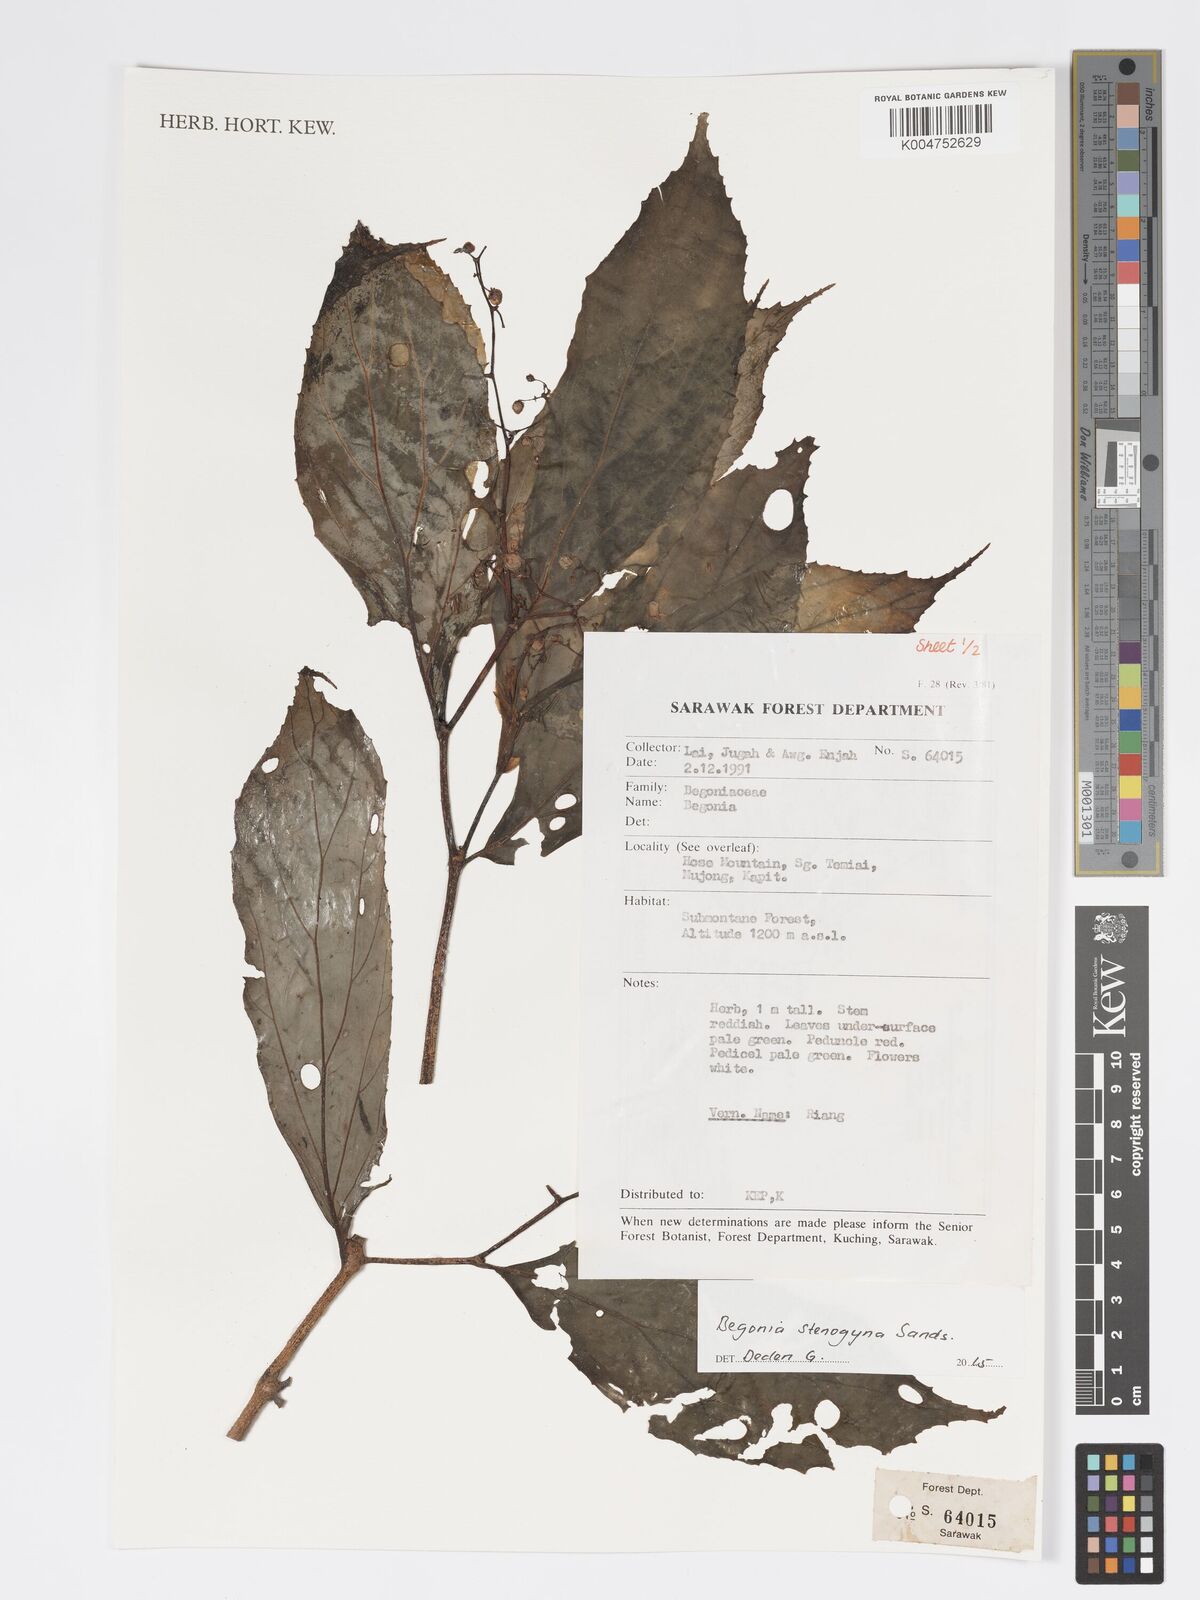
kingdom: Plantae
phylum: Tracheophyta
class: Magnoliopsida
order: Cucurbitales
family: Begoniaceae
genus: Begonia
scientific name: Begonia stenogyna
